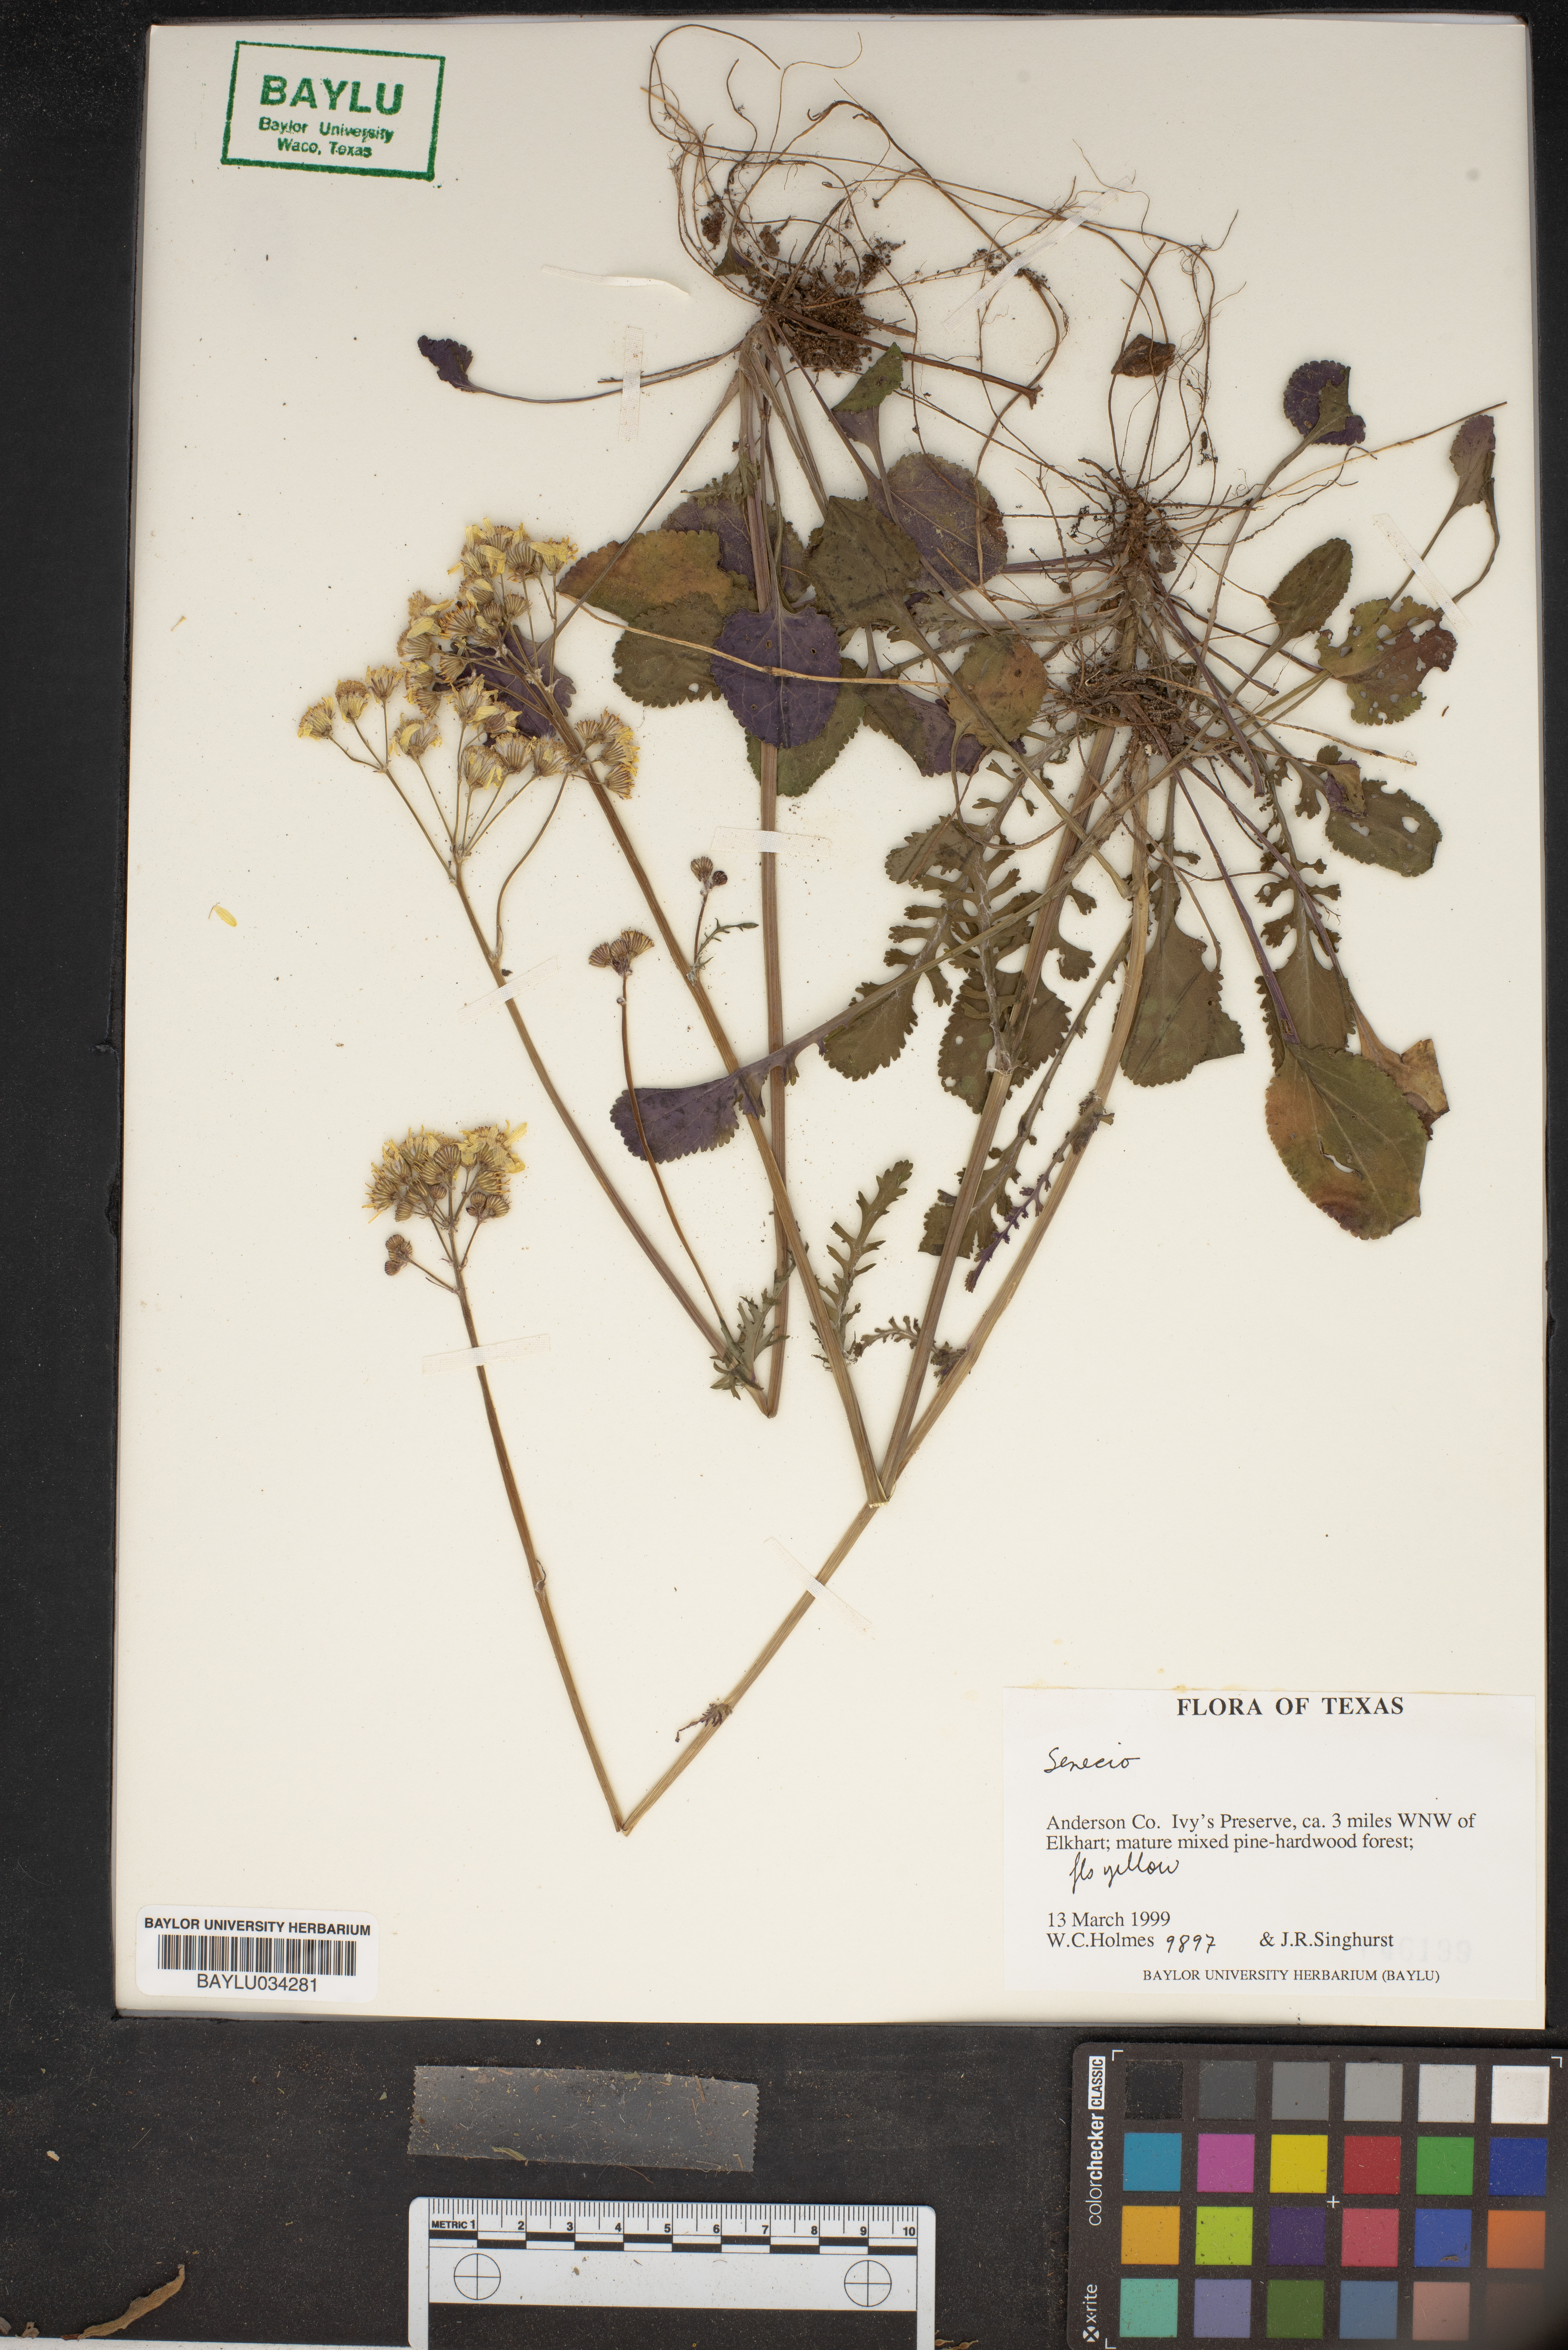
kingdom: Plantae
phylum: Tracheophyta
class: Magnoliopsida
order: Asterales
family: Asteraceae
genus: Senecio
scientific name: Senecio
